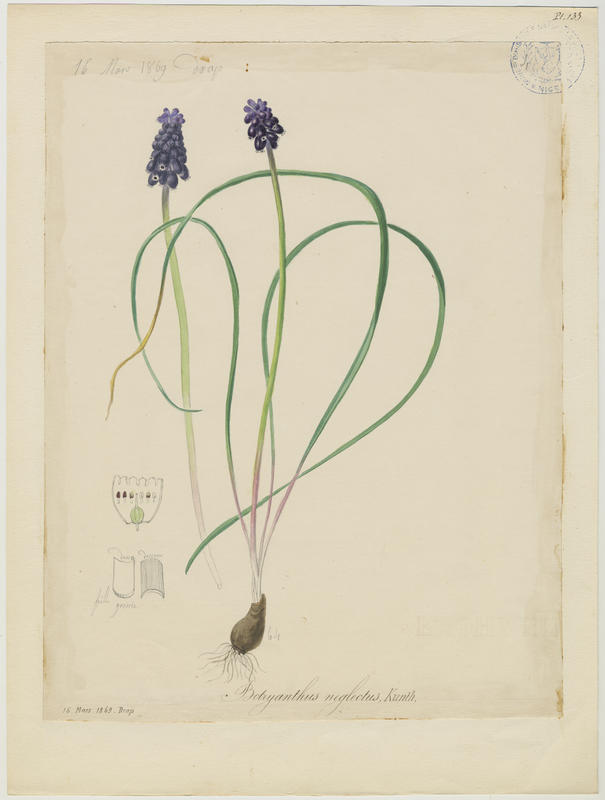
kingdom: Plantae
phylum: Tracheophyta
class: Liliopsida
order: Asparagales
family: Asparagaceae
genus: Muscari
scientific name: Muscari neglectum
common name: Grape-hyacinth
